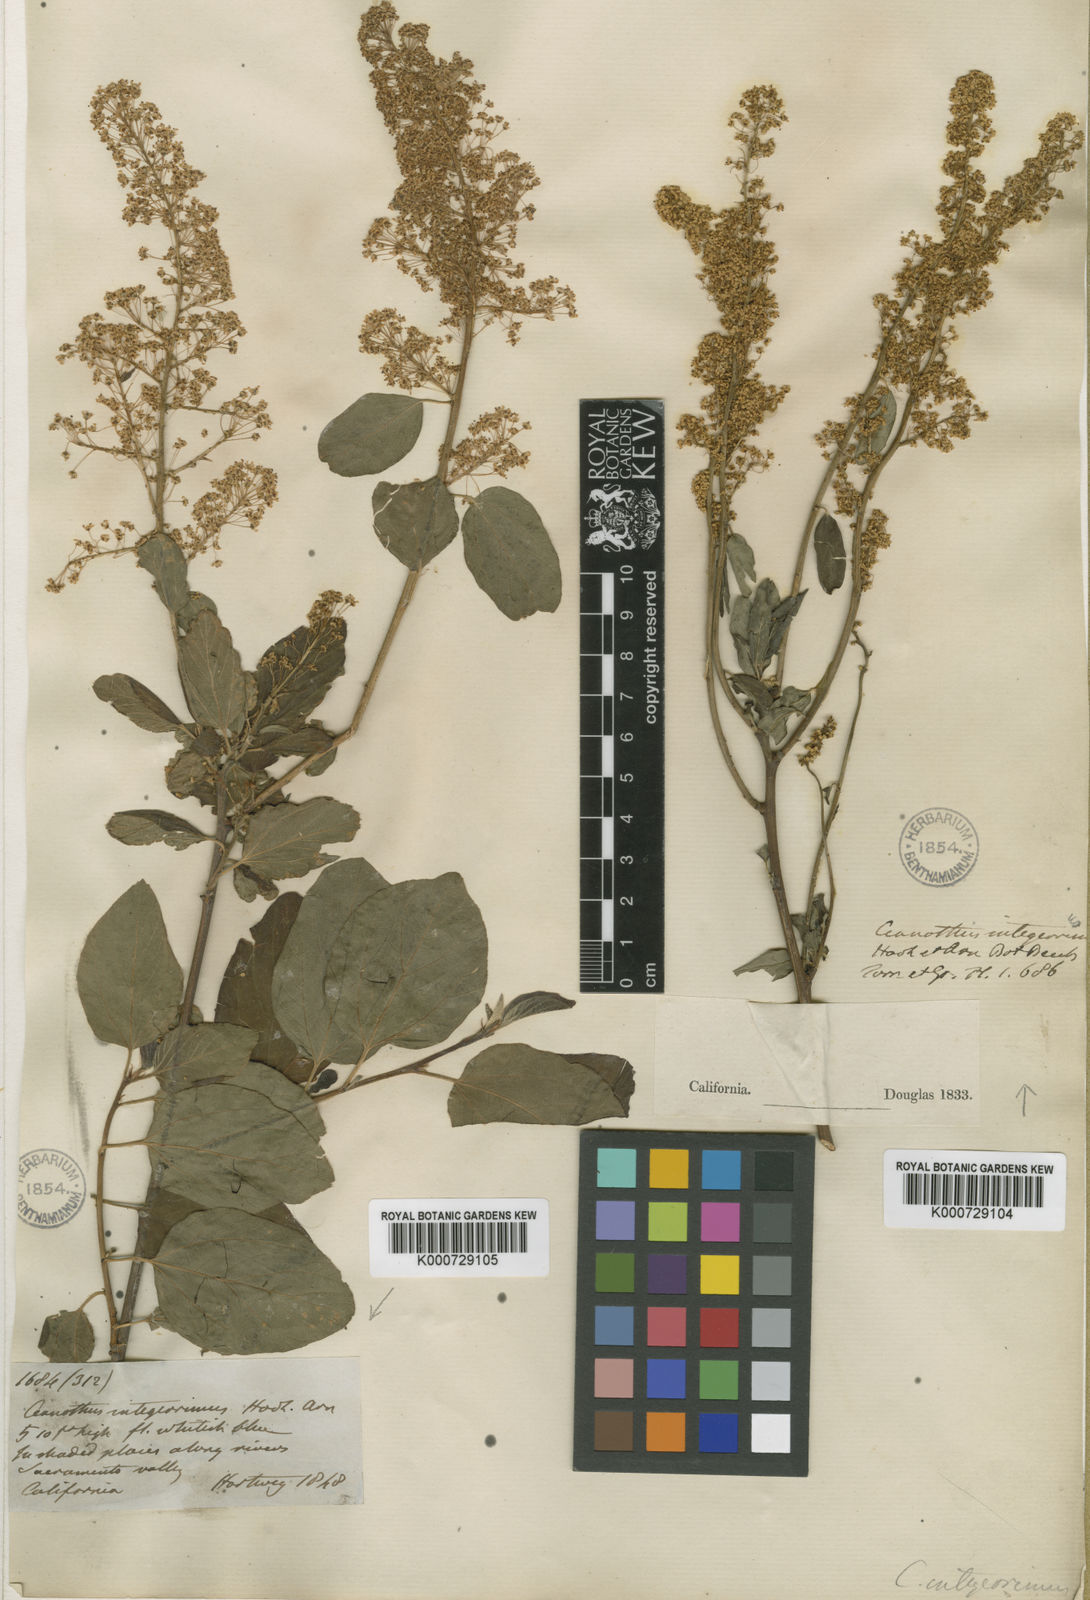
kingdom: Plantae
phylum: Tracheophyta
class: Magnoliopsida
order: Rosales
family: Rhamnaceae
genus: Ceanothus
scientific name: Ceanothus integerrimus
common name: Deerbrush ceanothus
